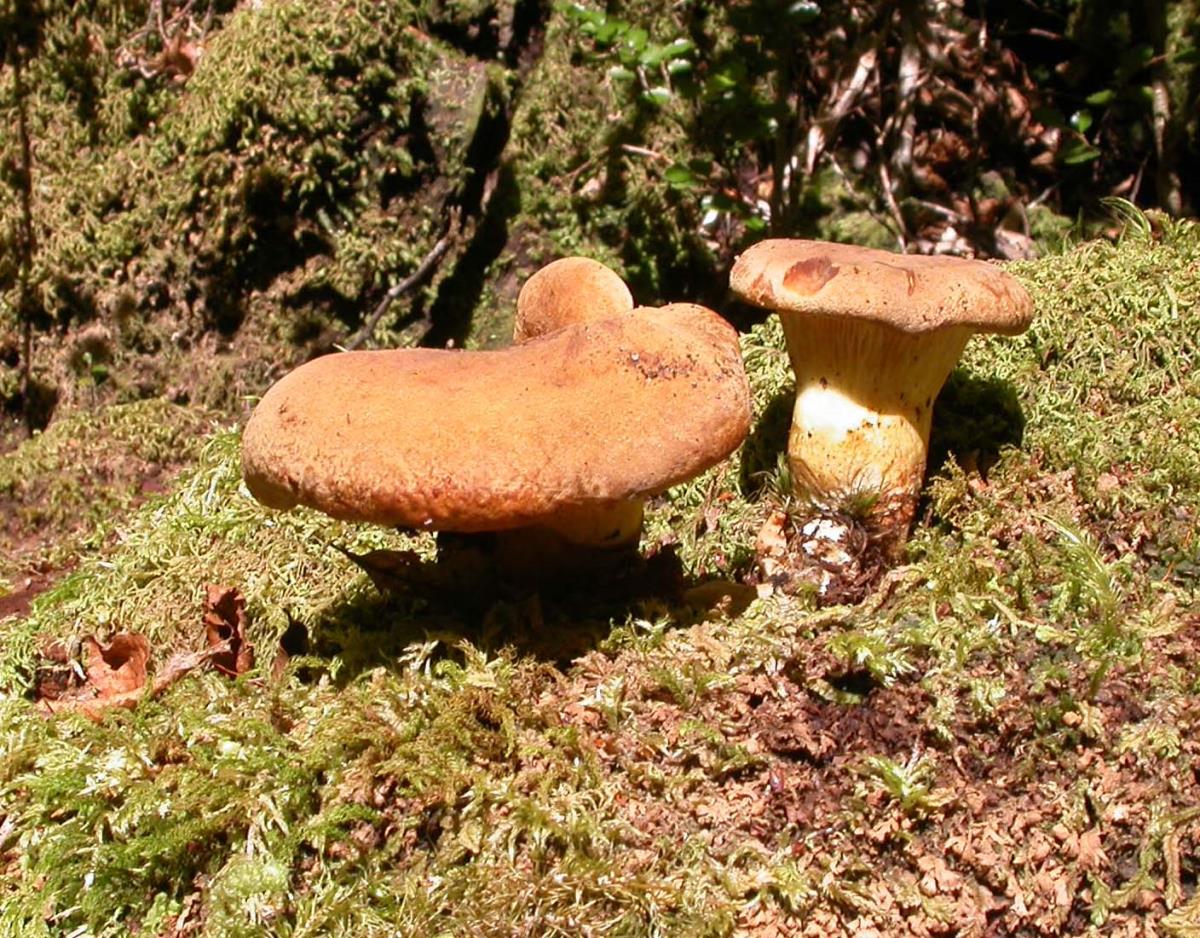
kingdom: Fungi
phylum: Basidiomycota
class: Agaricomycetes
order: Boletales
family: Serpulaceae
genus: Austropaxillus
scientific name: Austropaxillus mcnabbii
